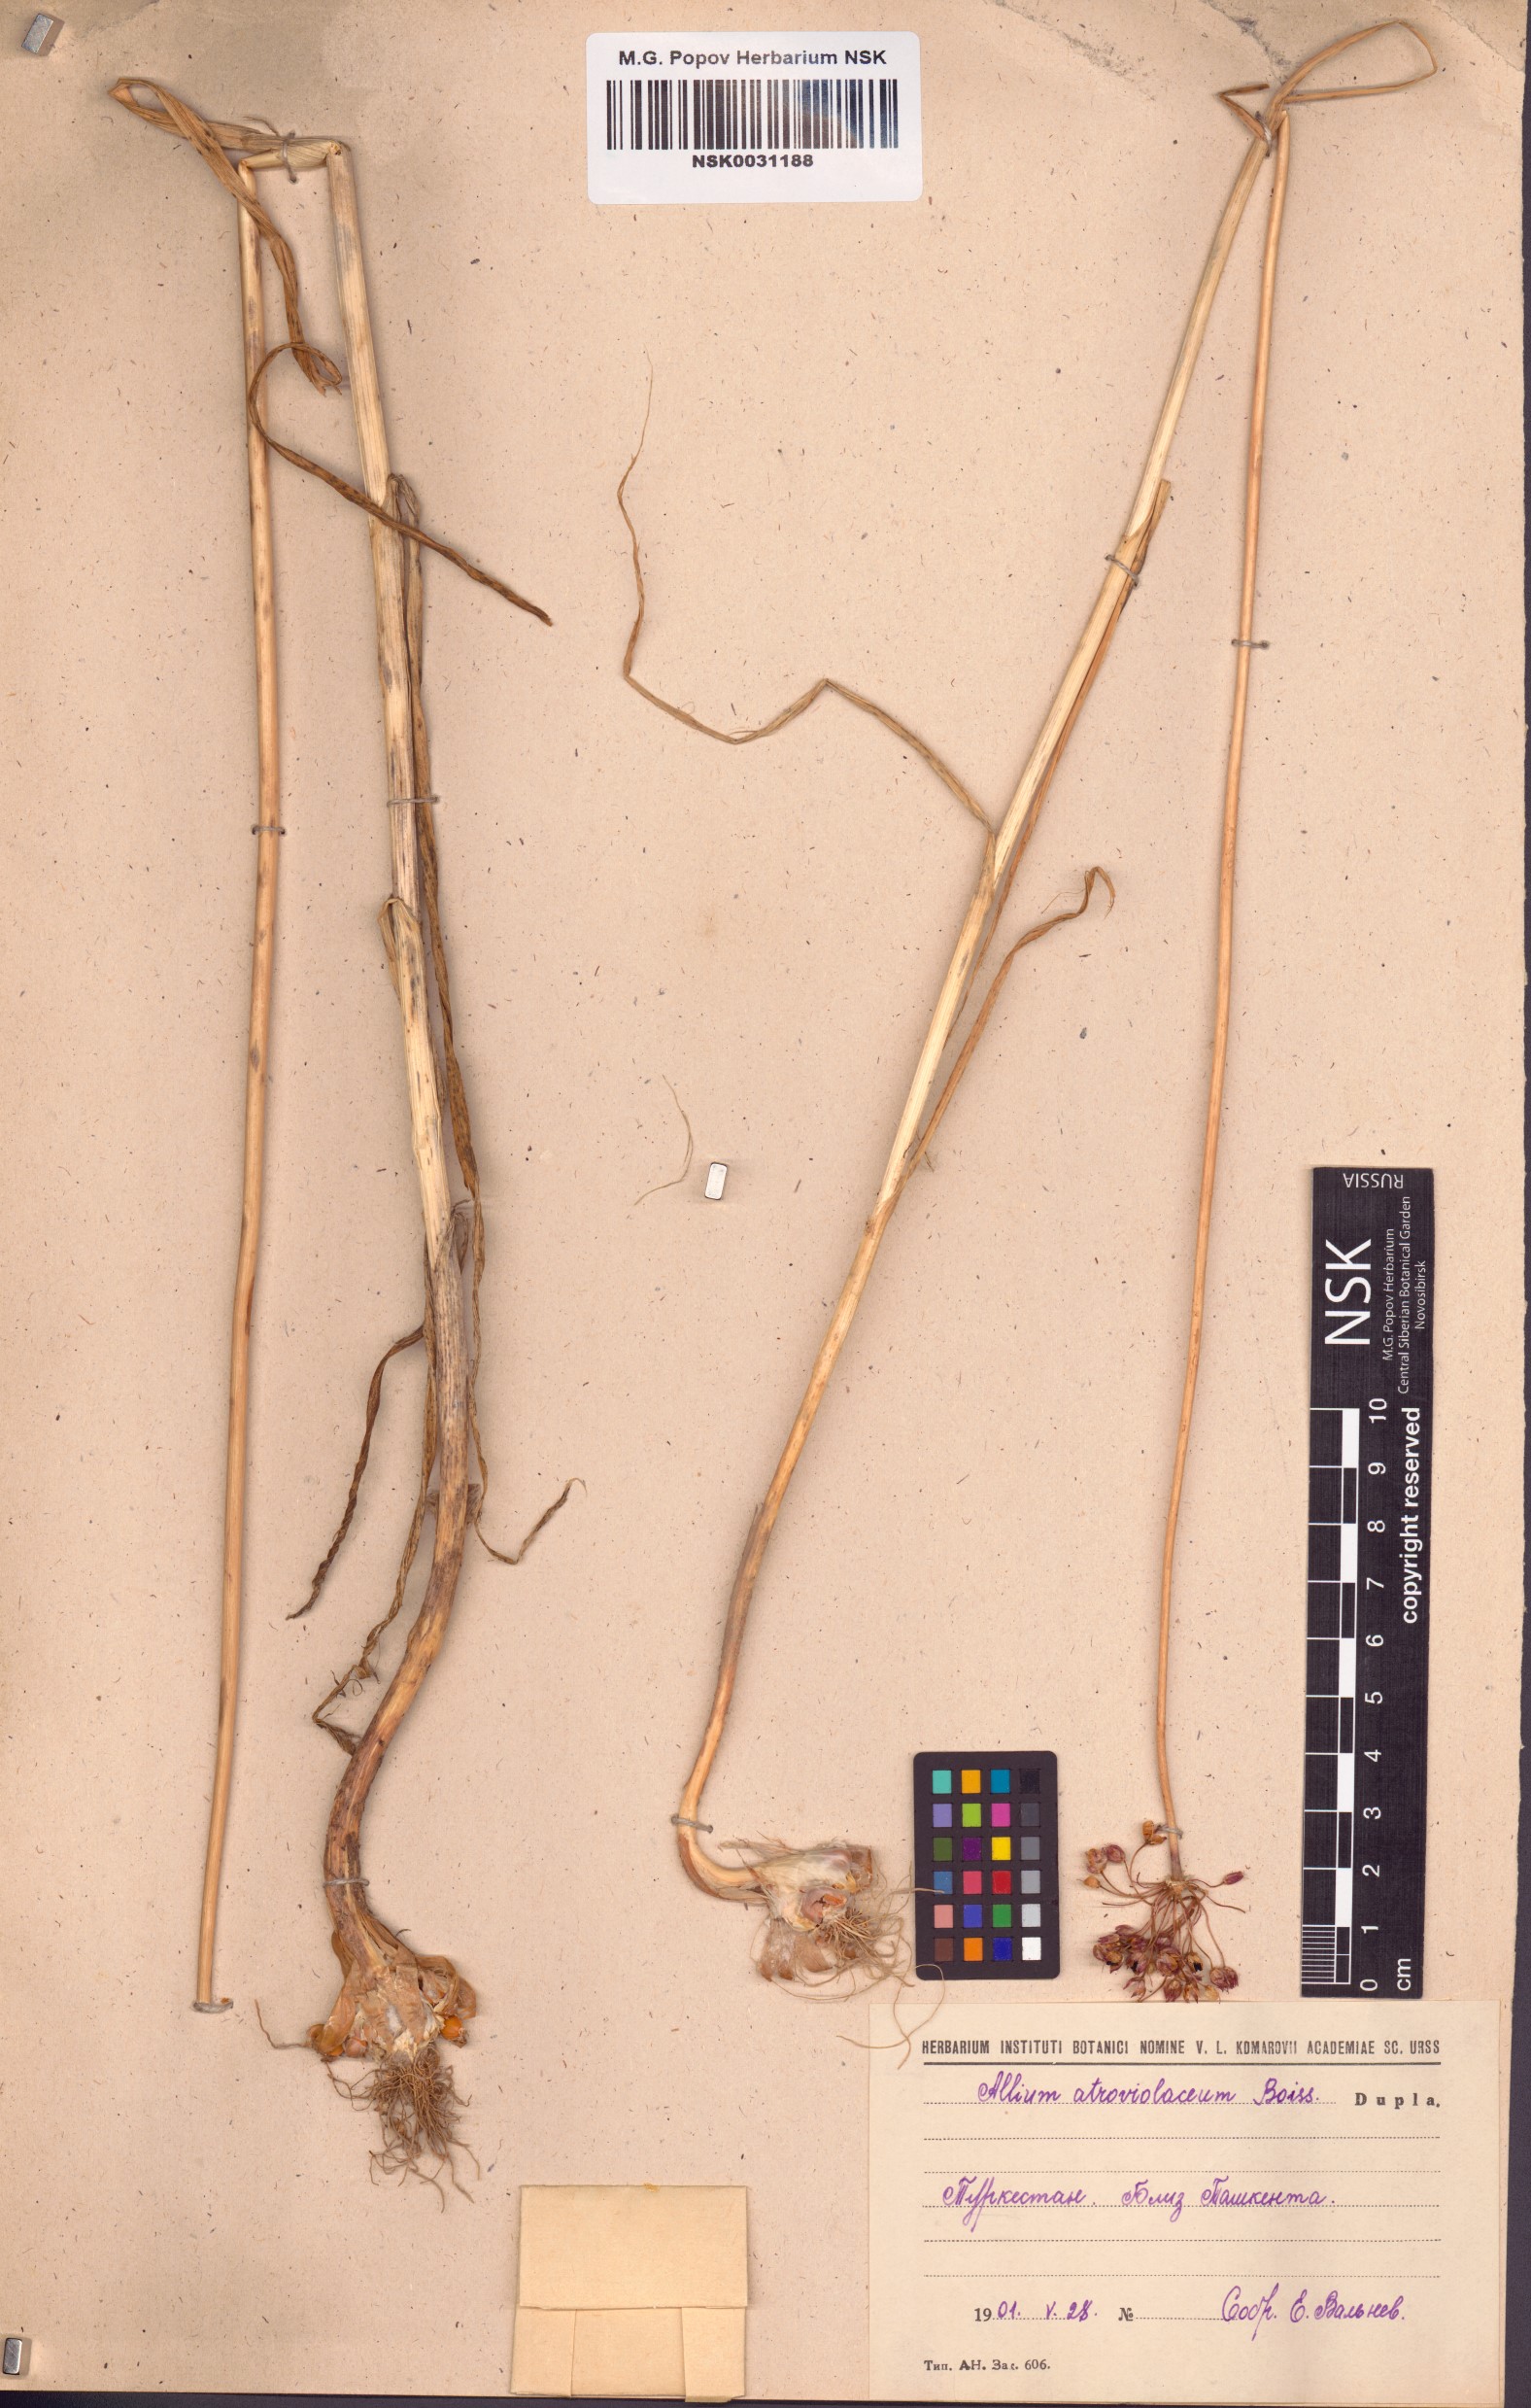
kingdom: Plantae
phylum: Tracheophyta
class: Liliopsida
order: Asparagales
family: Amaryllidaceae
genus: Allium
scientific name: Allium atroviolaceum
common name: Broadleaf wild leek
